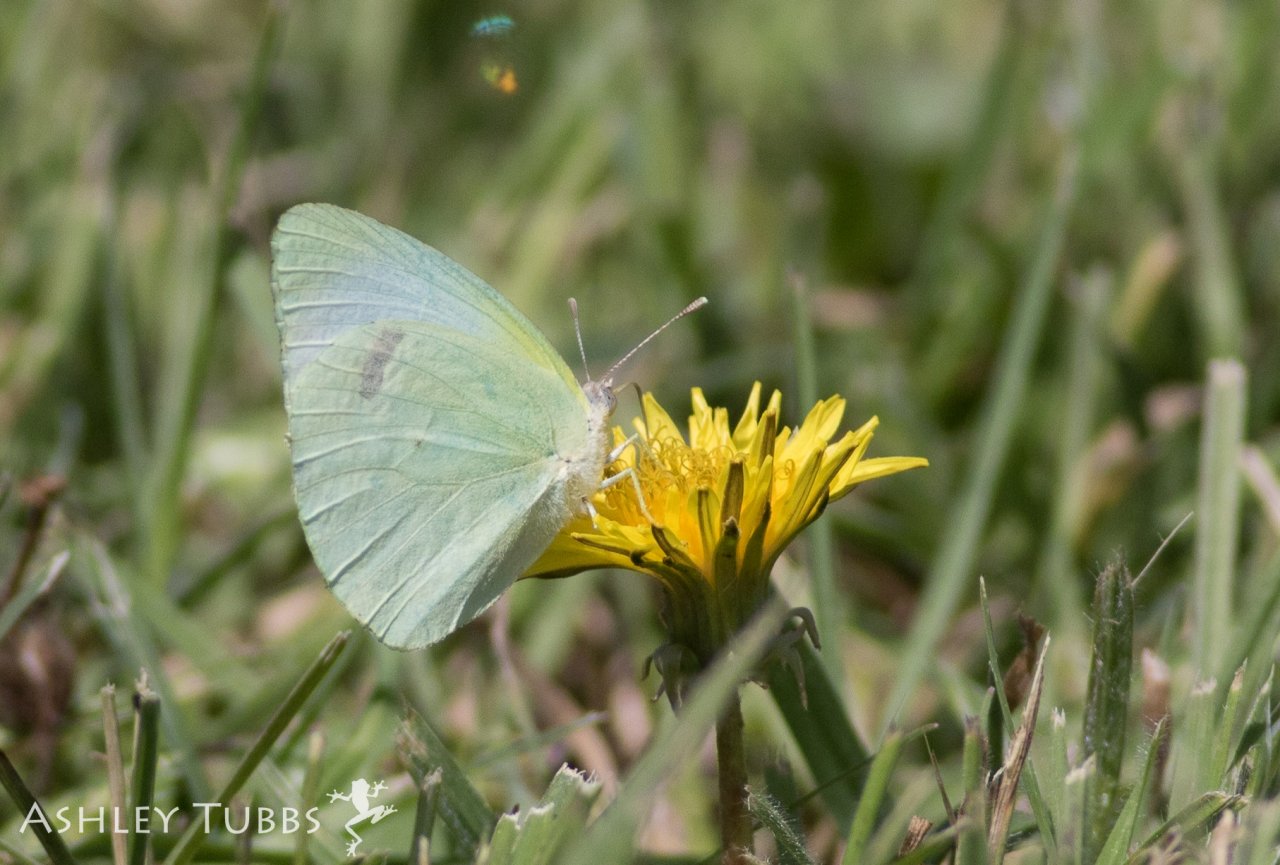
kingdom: Animalia
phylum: Arthropoda
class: Insecta
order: Lepidoptera
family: Pieridae
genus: Kricogonia
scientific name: Kricogonia lyside
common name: Lyside Sulphur
